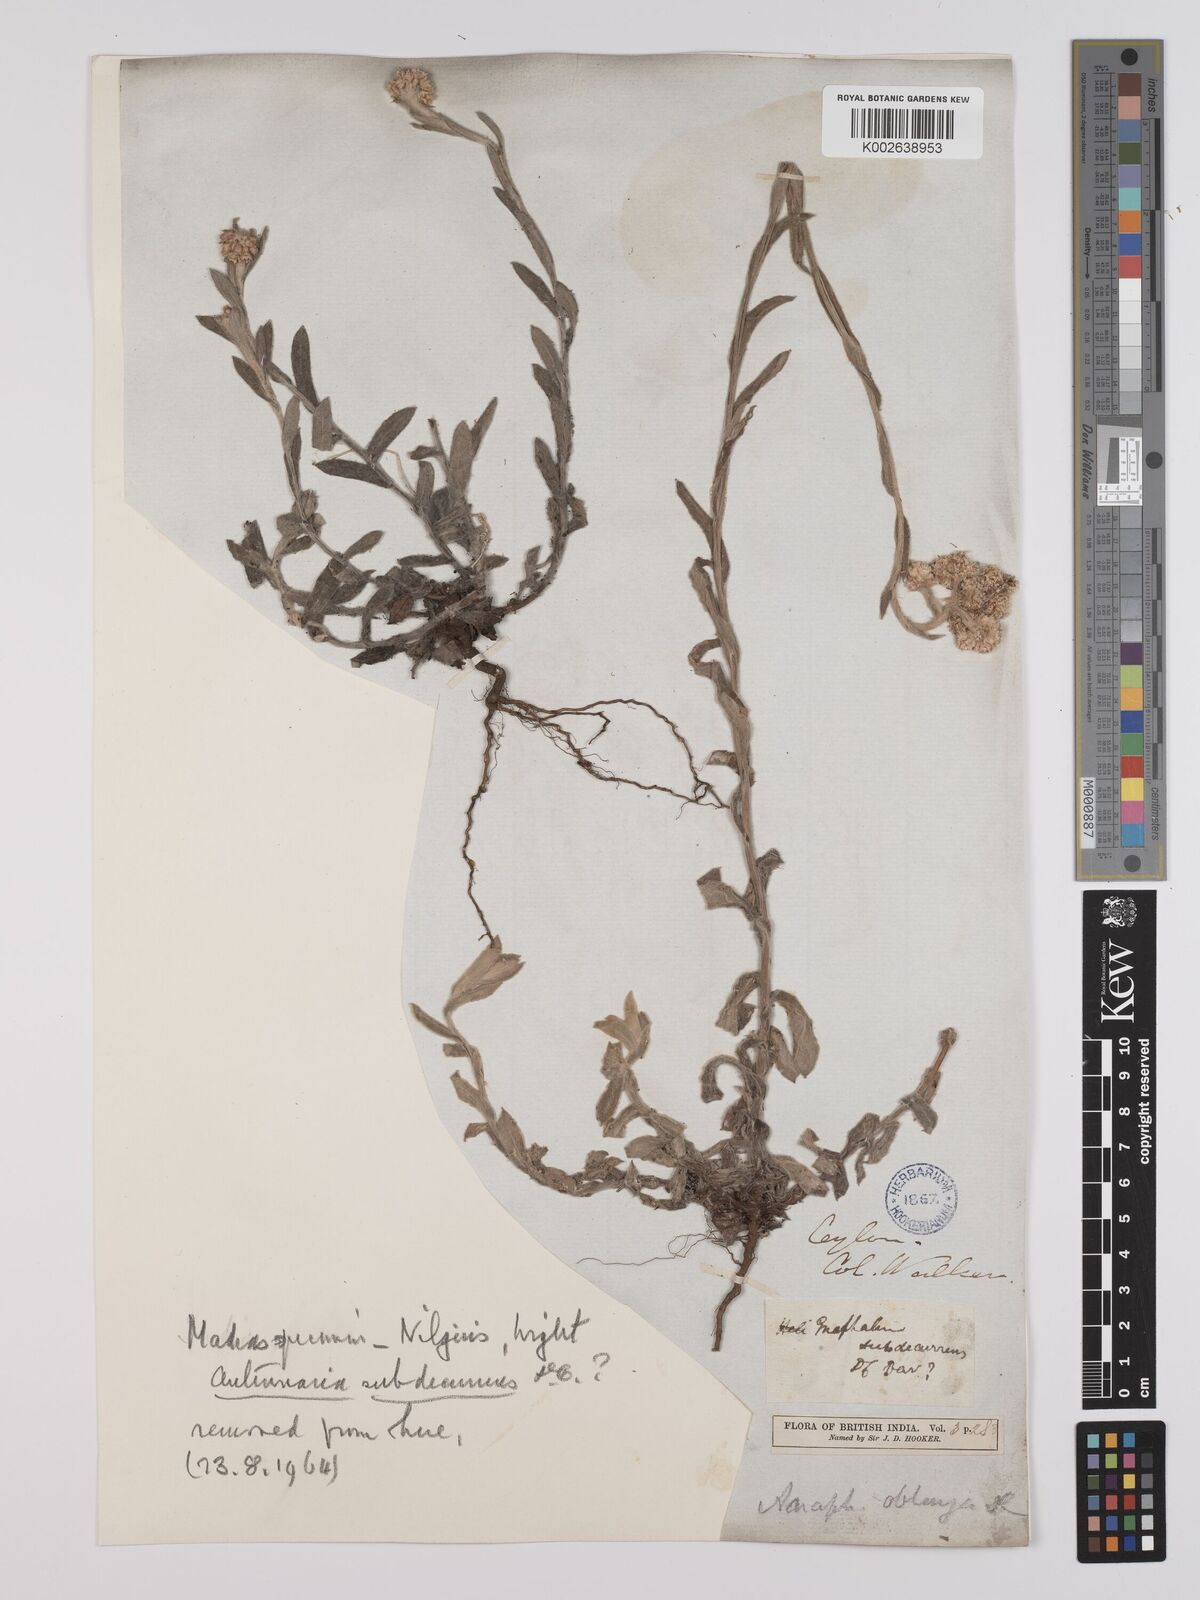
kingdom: Plantae
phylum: Tracheophyta
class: Magnoliopsida
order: Asterales
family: Asteraceae
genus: Anaphalis
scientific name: Anaphalis subdecurrens
